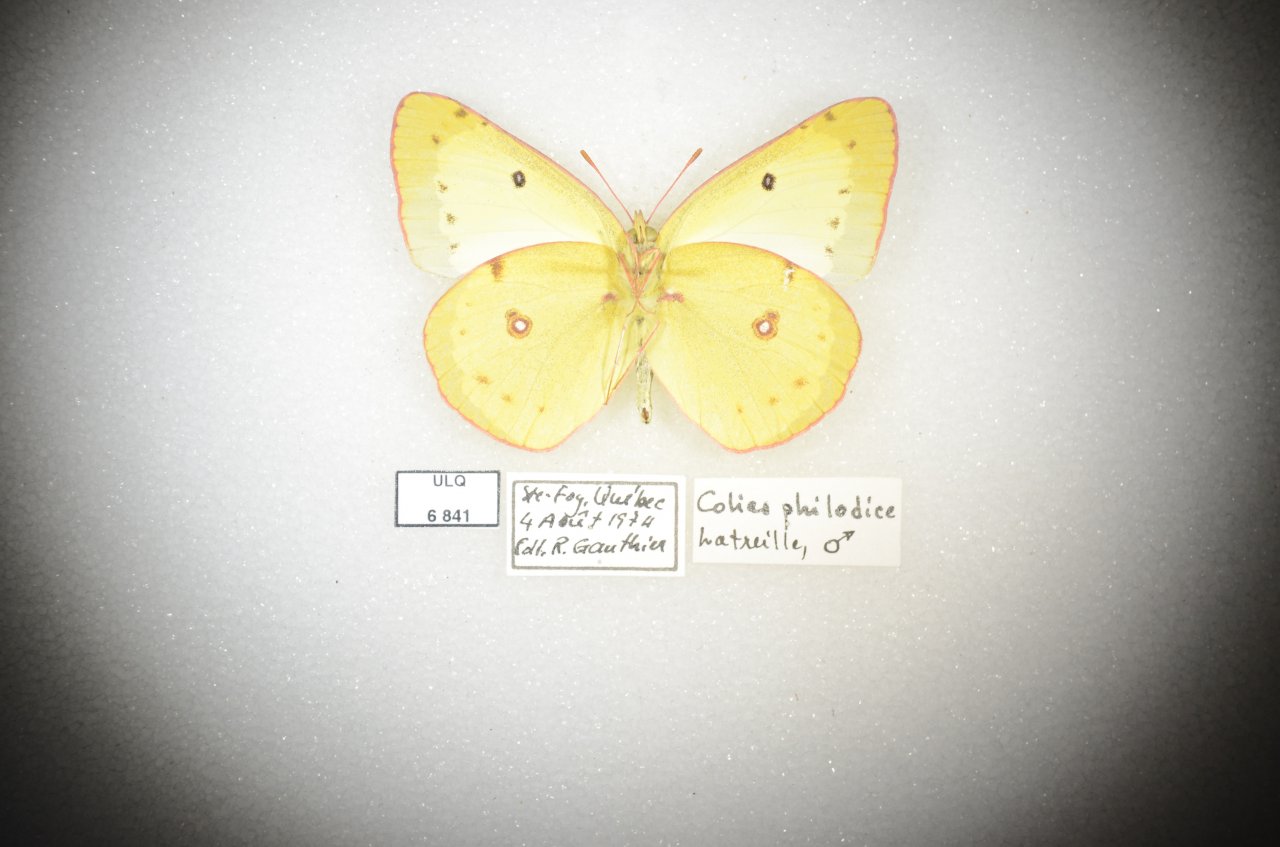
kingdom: Animalia
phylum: Arthropoda
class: Insecta
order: Lepidoptera
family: Pieridae
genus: Colias
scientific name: Colias philodice
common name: Clouded Sulphur
